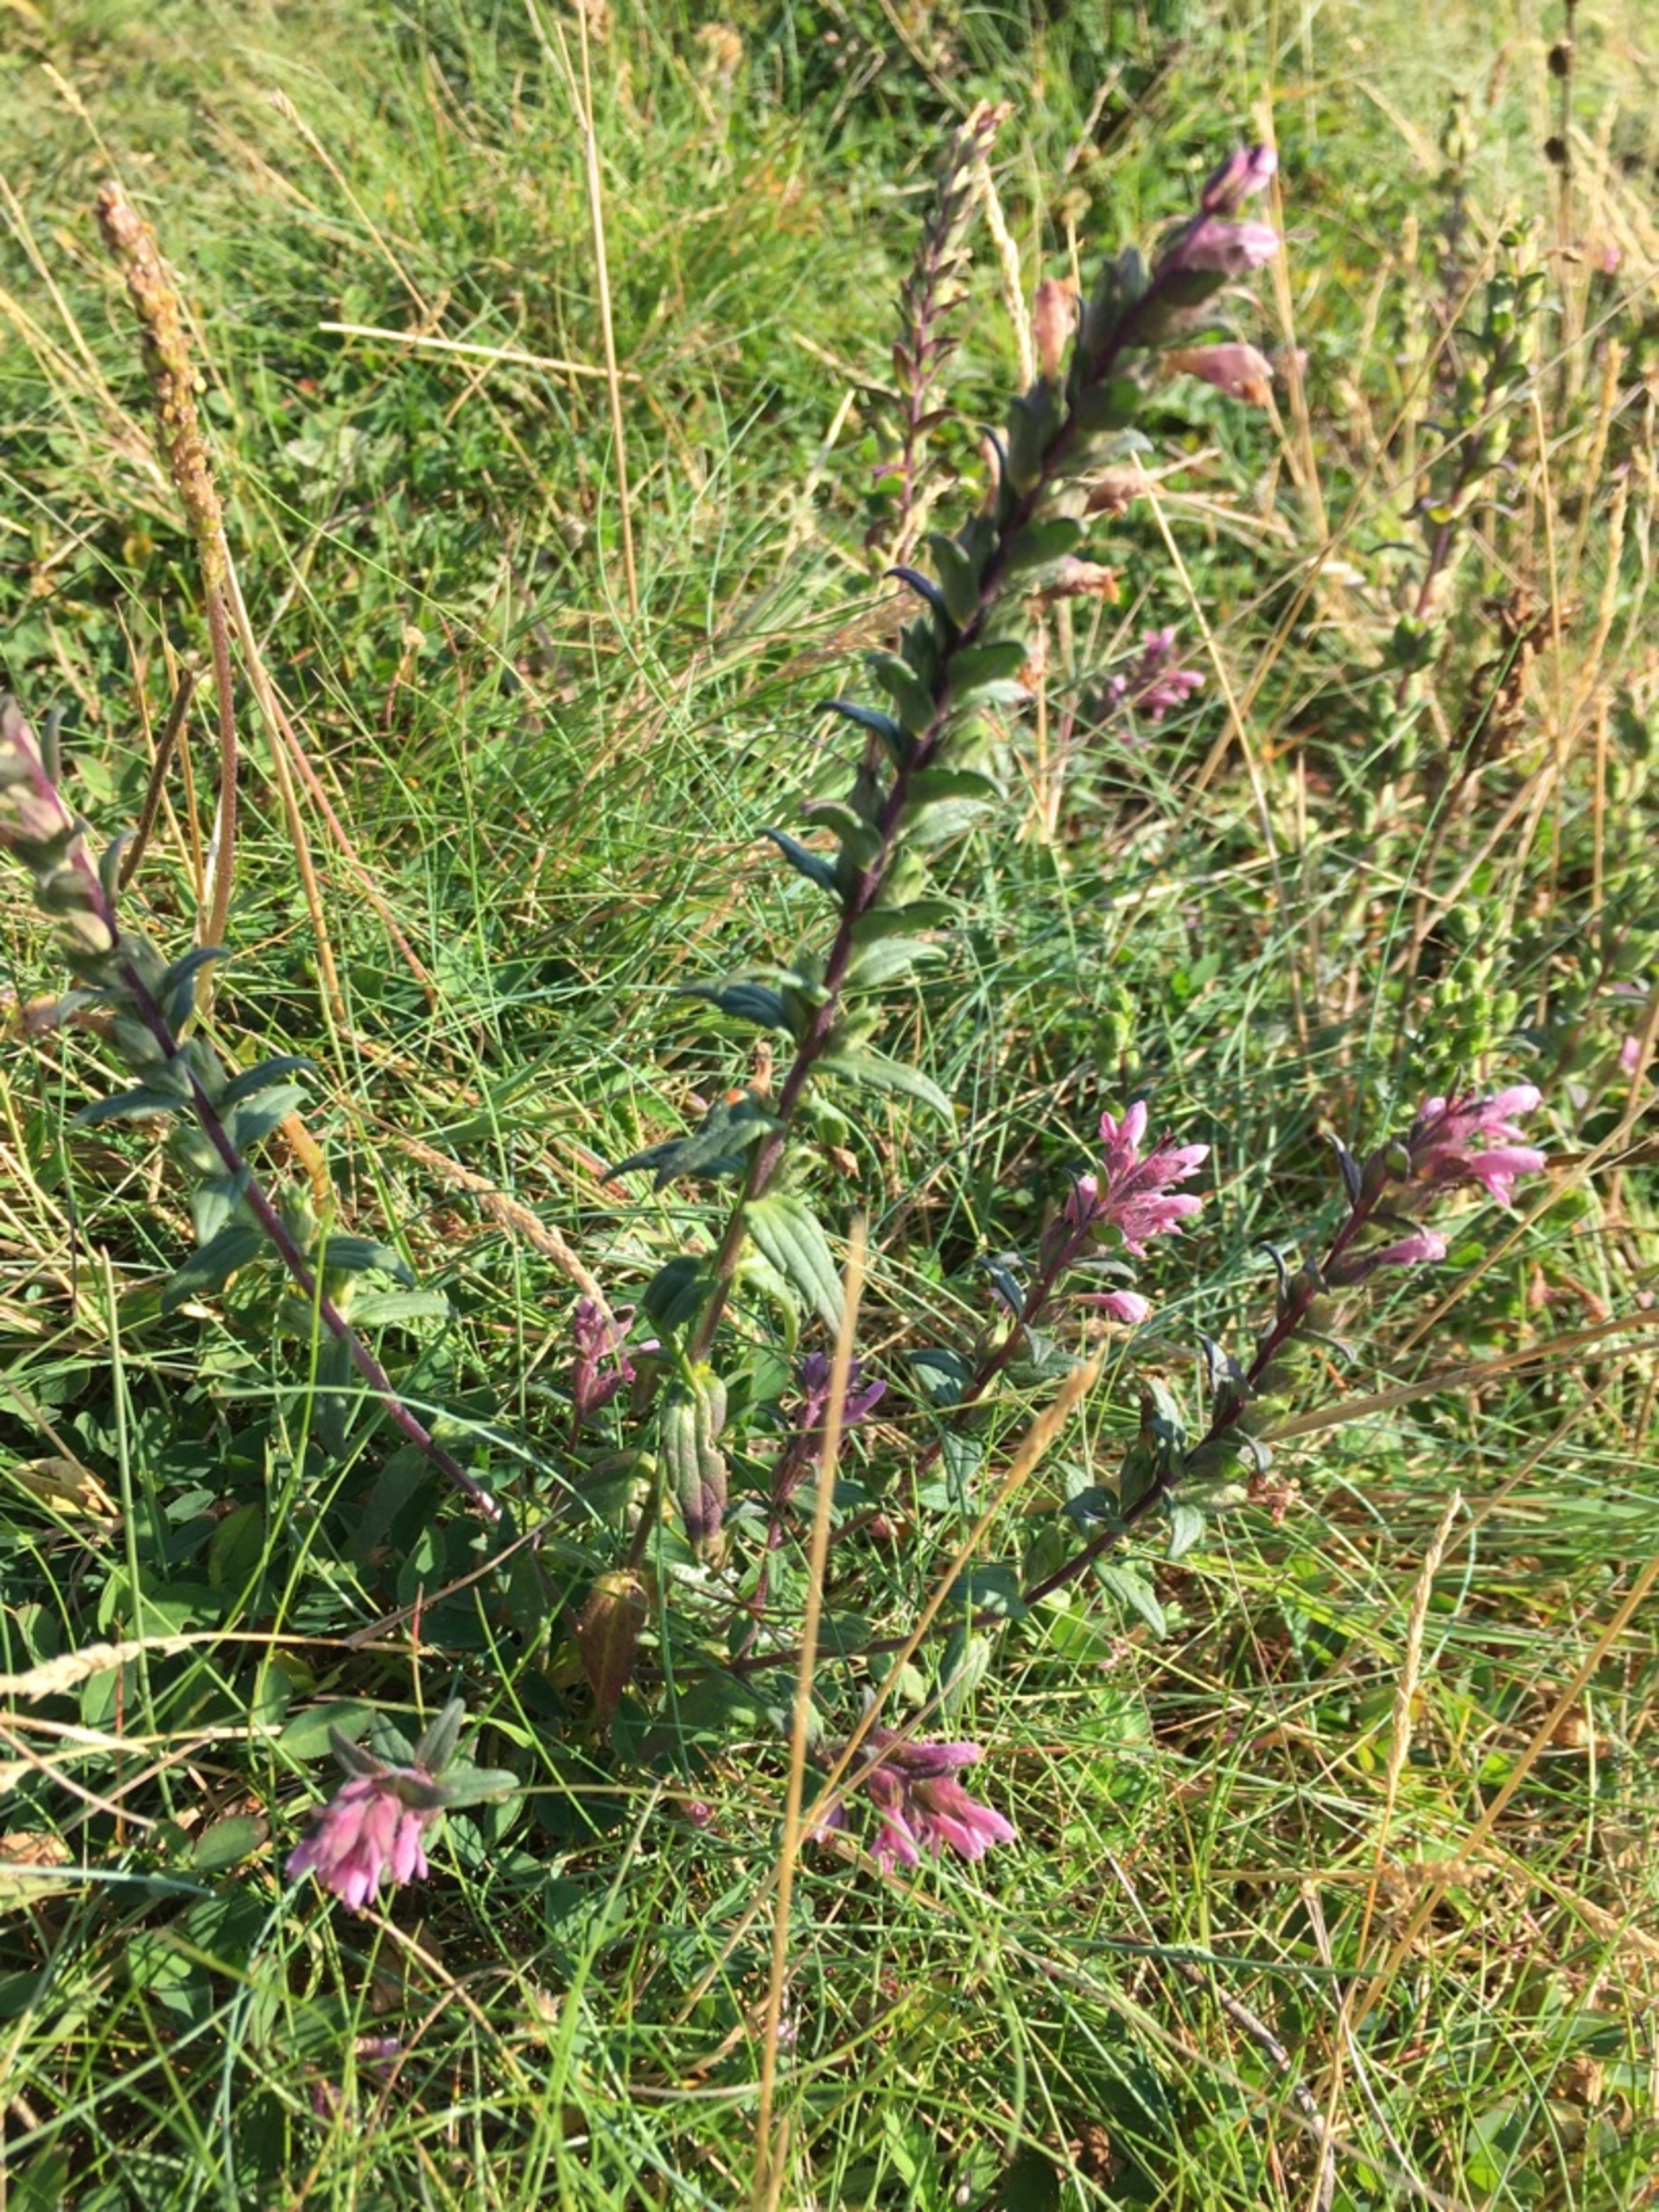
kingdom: Plantae
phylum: Tracheophyta
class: Magnoliopsida
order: Lamiales
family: Orobanchaceae
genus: Odontites
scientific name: Odontites litoralis
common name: Strand-rødtop
